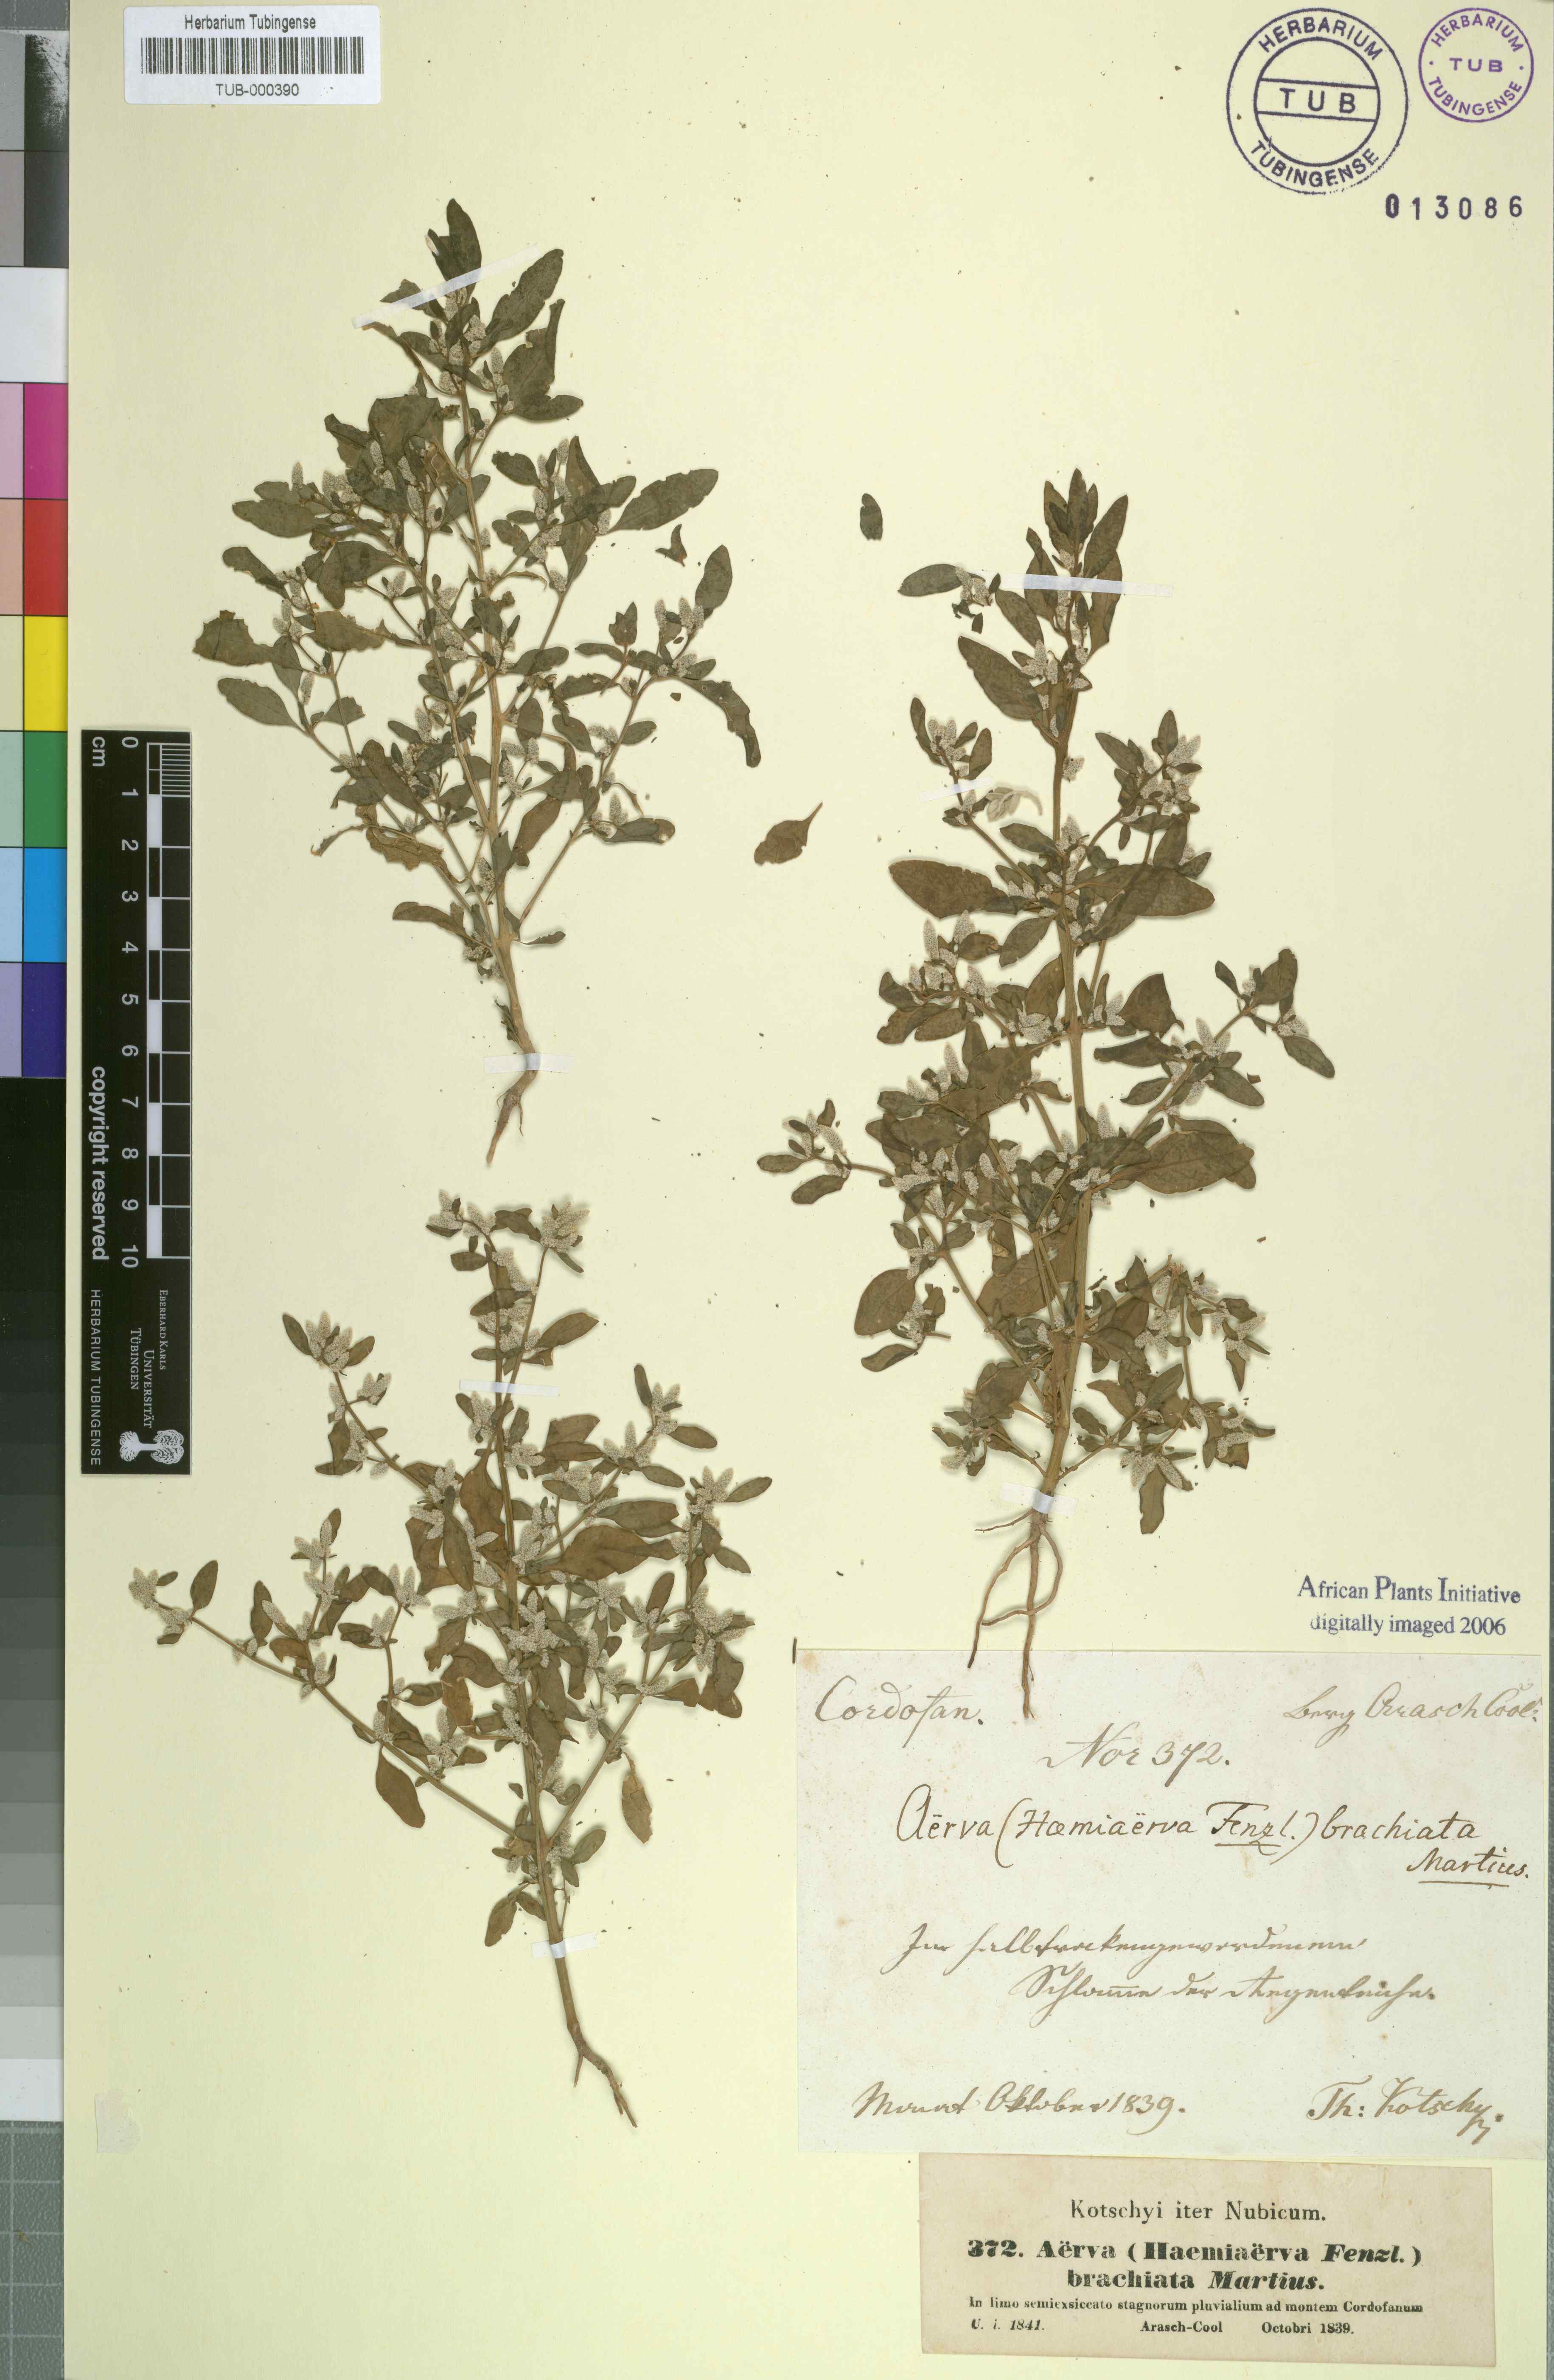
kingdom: Plantae
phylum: Tracheophyta
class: Magnoliopsida
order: Caryophyllales
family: Amaranthaceae
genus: Nothosaerva
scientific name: Nothosaerva brachiata
